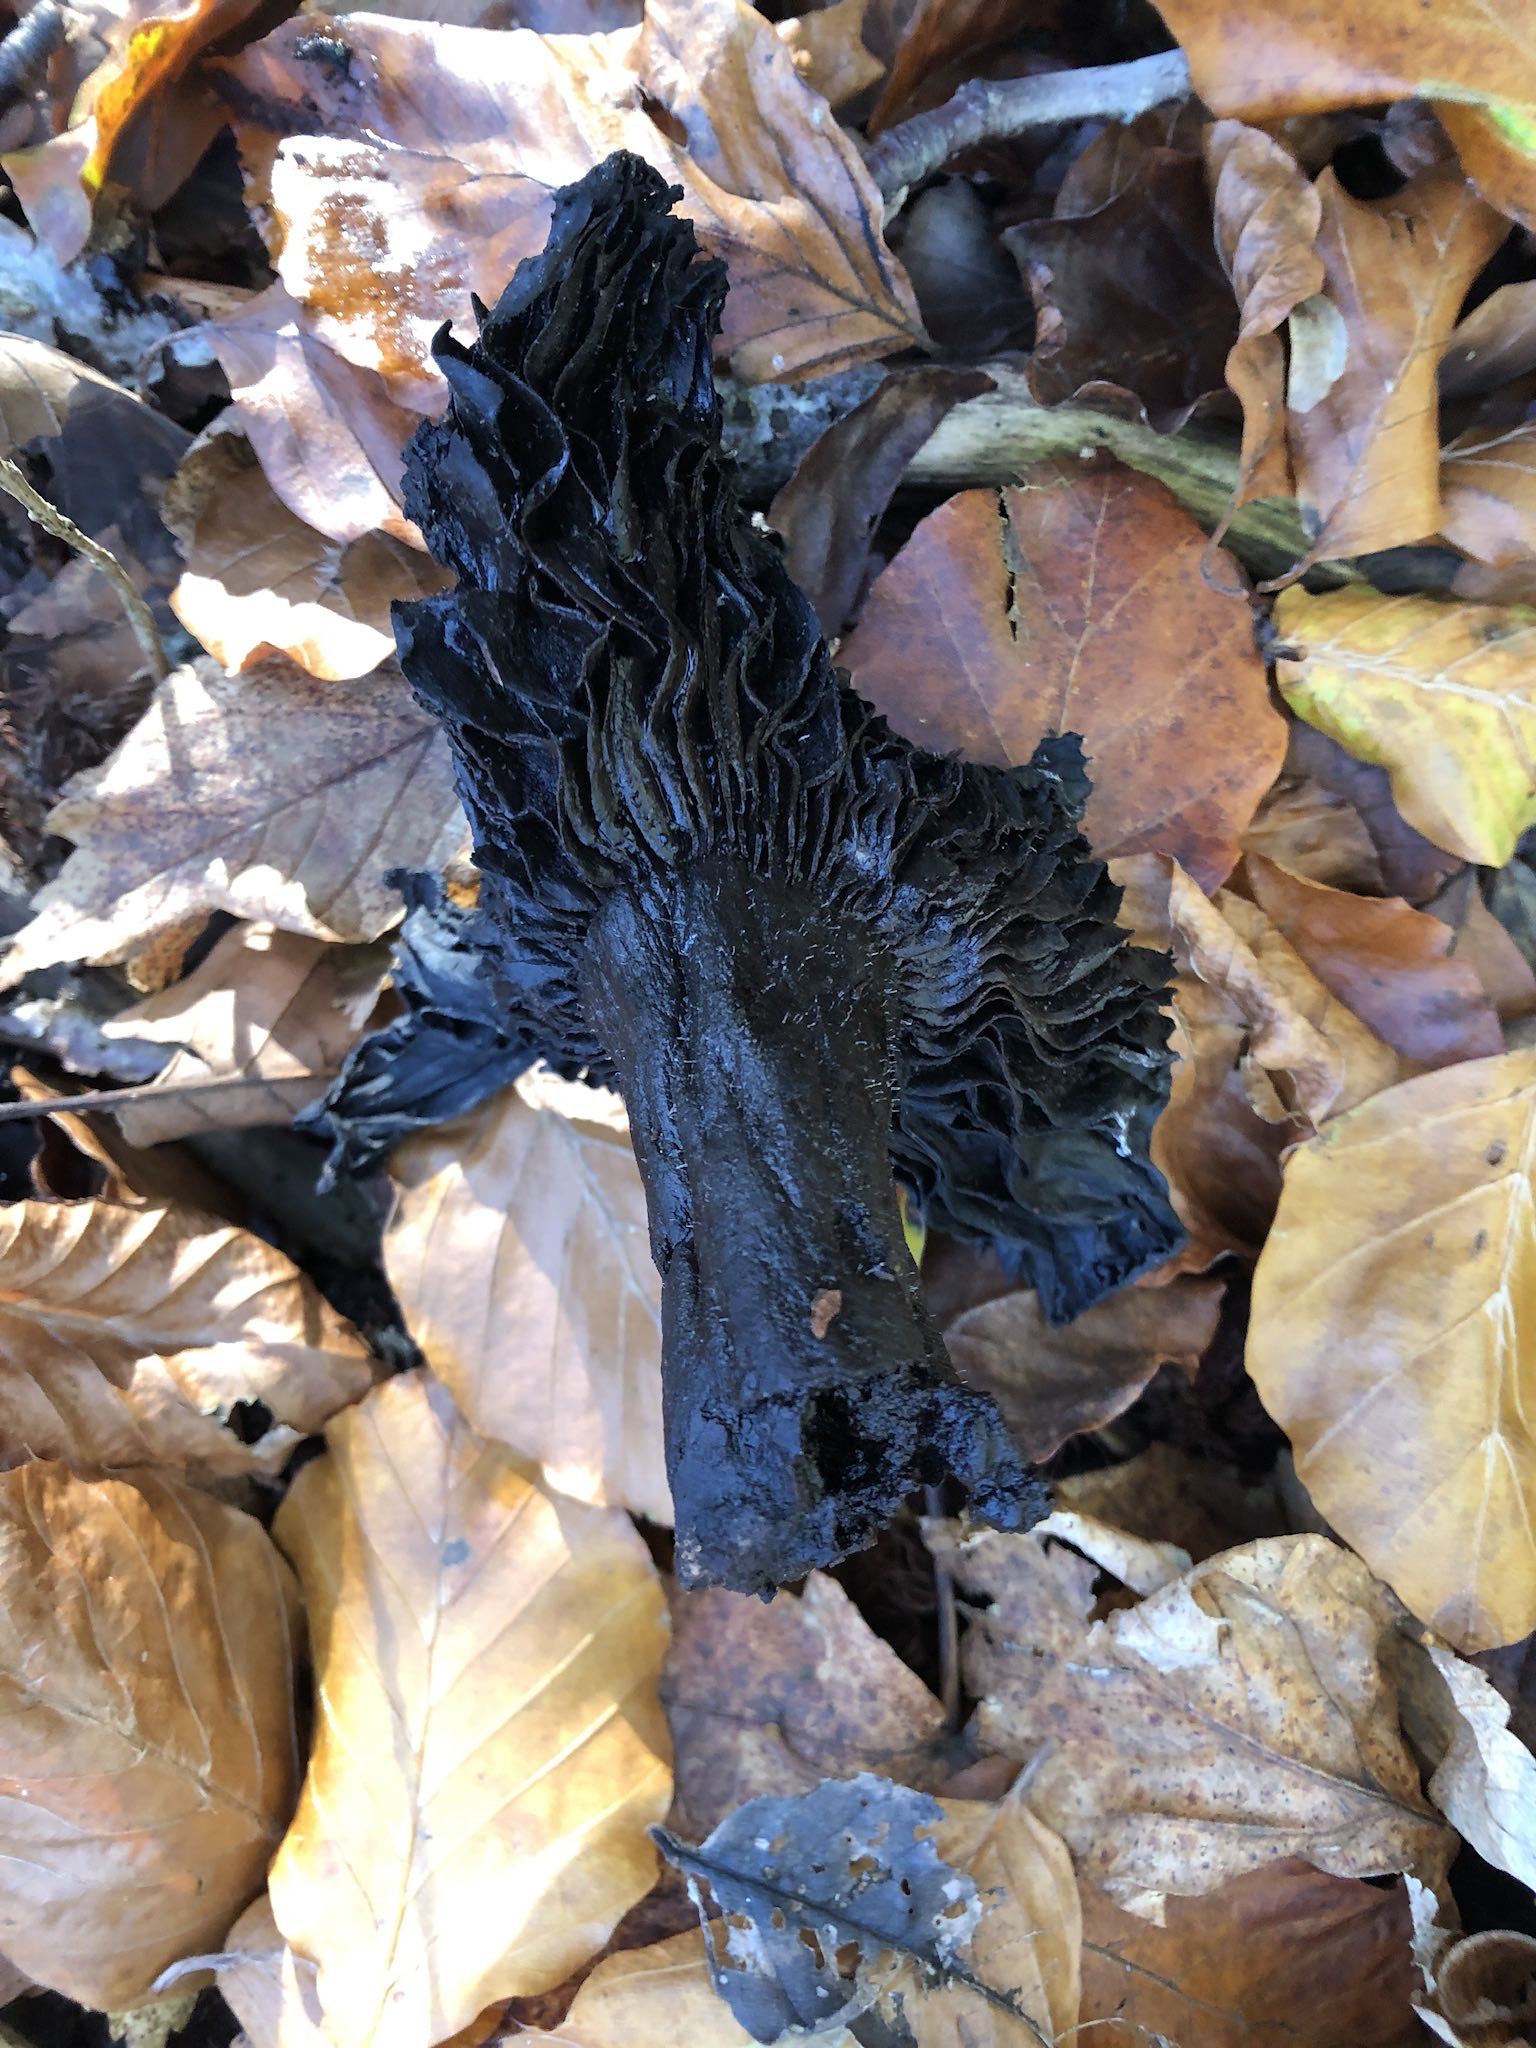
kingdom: Fungi
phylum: Basidiomycota
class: Agaricomycetes
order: Russulales
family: Russulaceae
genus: Russula
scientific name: Russula
